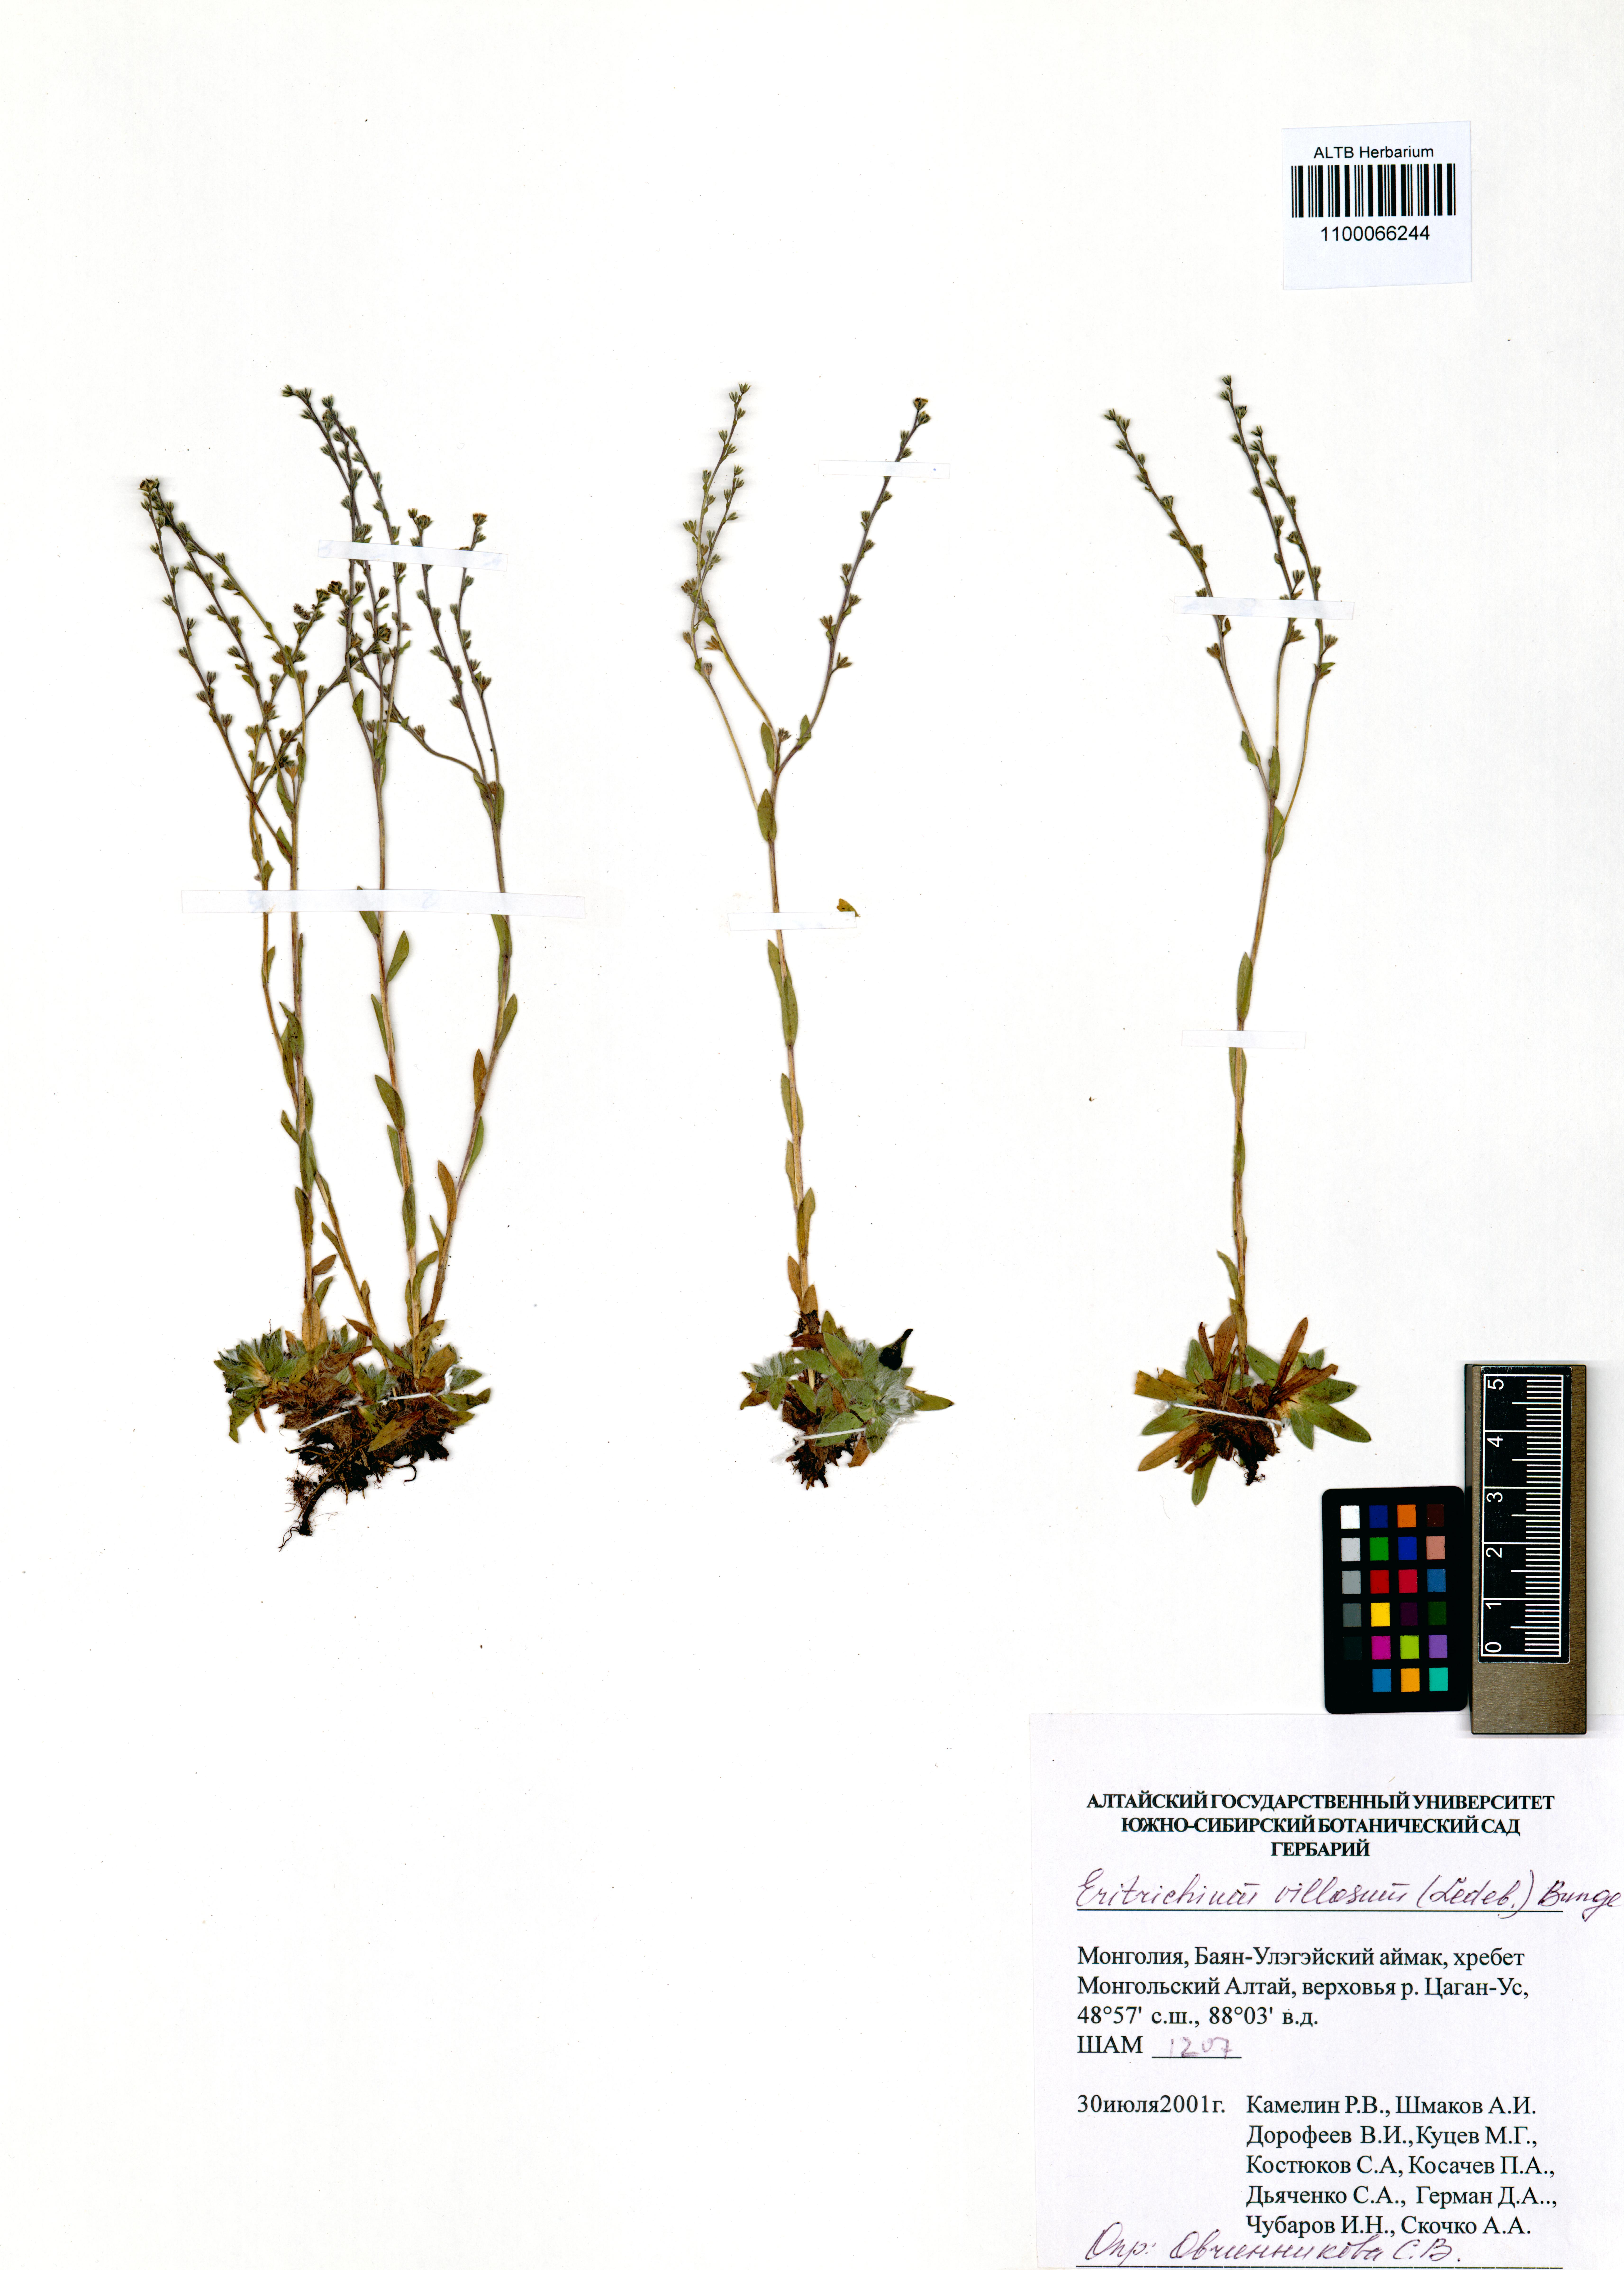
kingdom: Plantae
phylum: Tracheophyta
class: Magnoliopsida
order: Boraginales
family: Boraginaceae
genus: Eritrichium
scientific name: Eritrichium villosum
